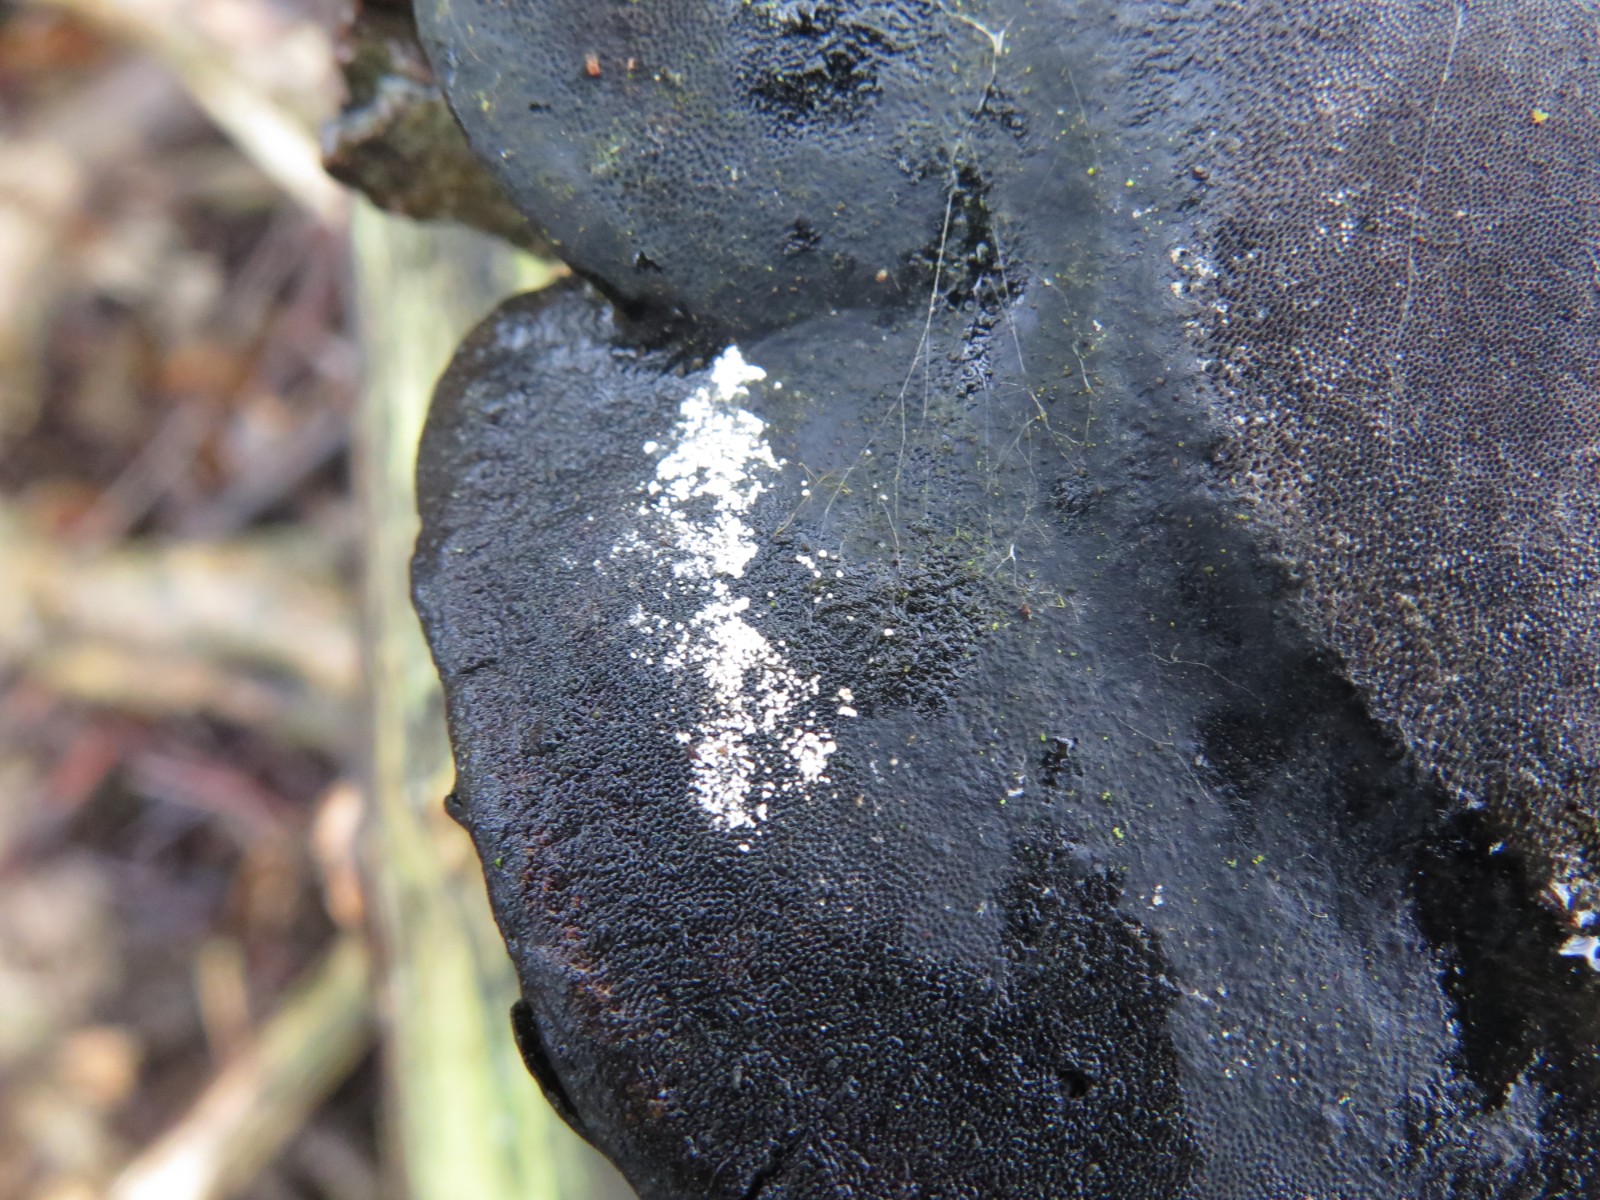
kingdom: Fungi
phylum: Basidiomycota
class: Agaricomycetes
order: Cantharellales
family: Hydnaceae
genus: Sistotrema
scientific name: Sistotrema brinkmannii
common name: bønnesporet kroneskorpe
